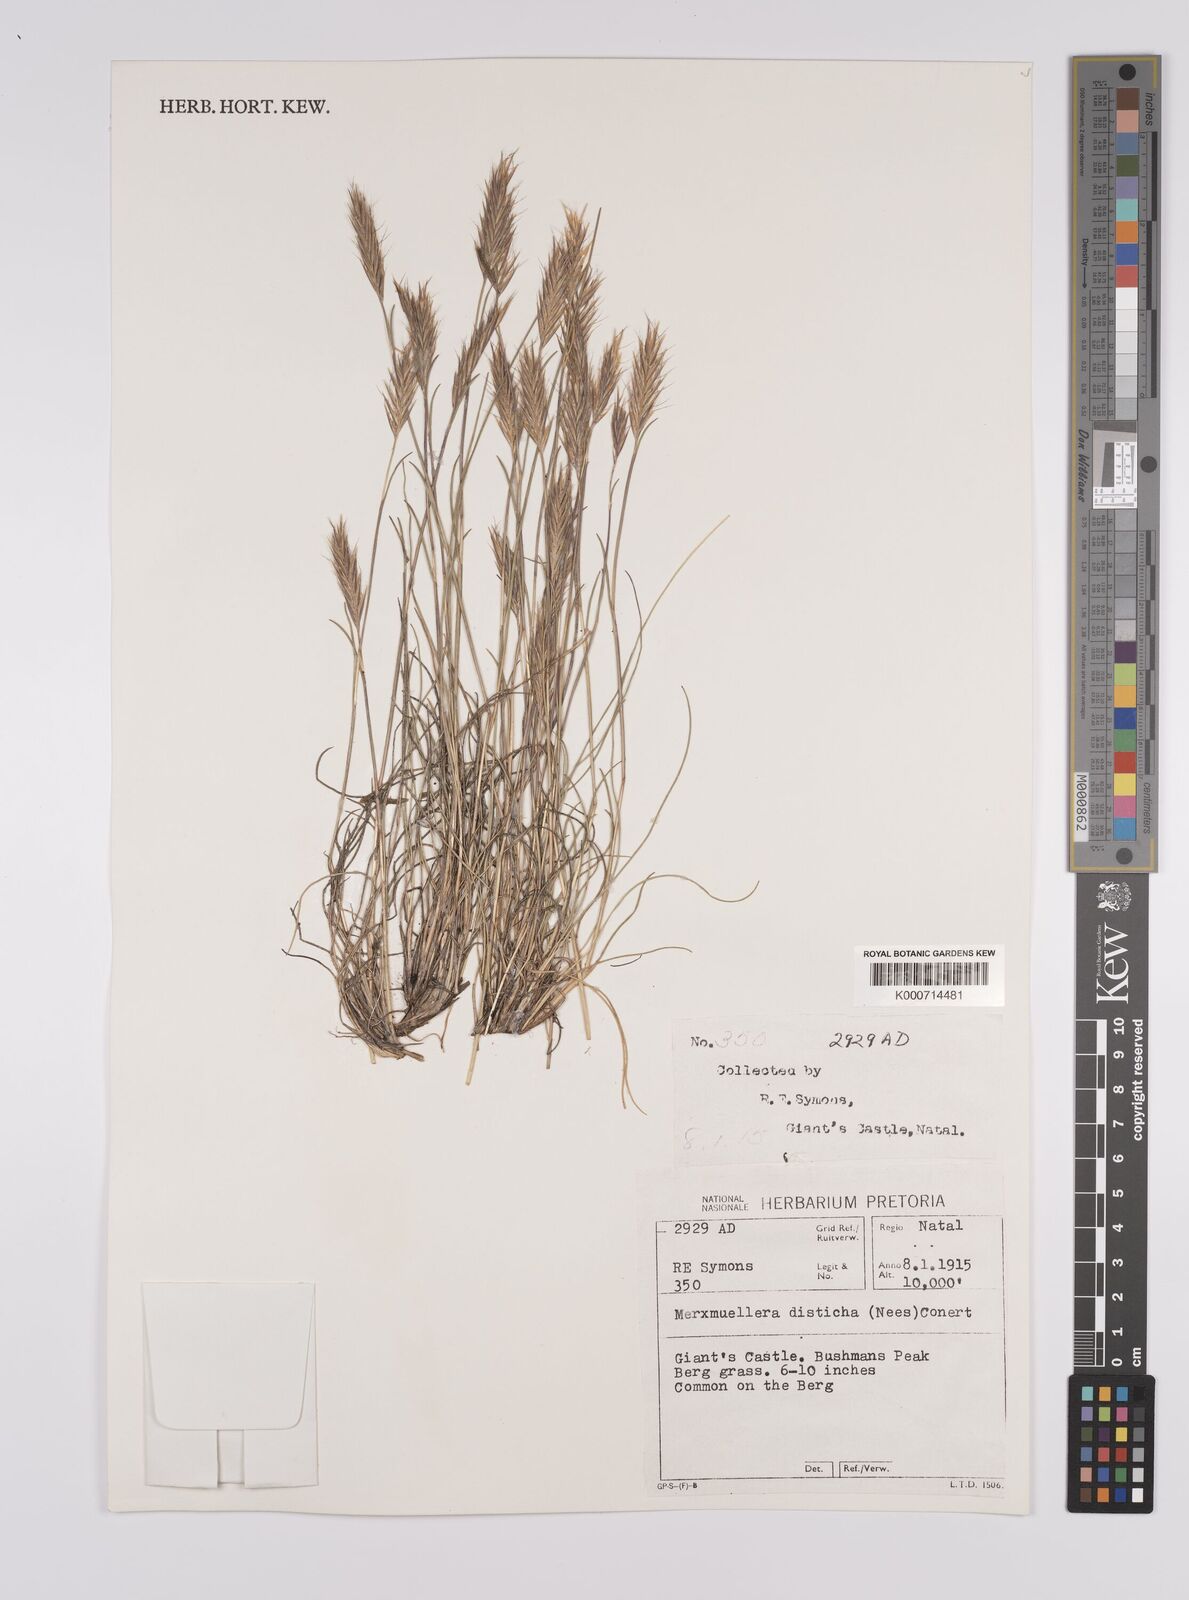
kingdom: Plantae
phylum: Tracheophyta
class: Liliopsida
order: Poales
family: Poaceae
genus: Tenaxia
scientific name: Tenaxia disticha
